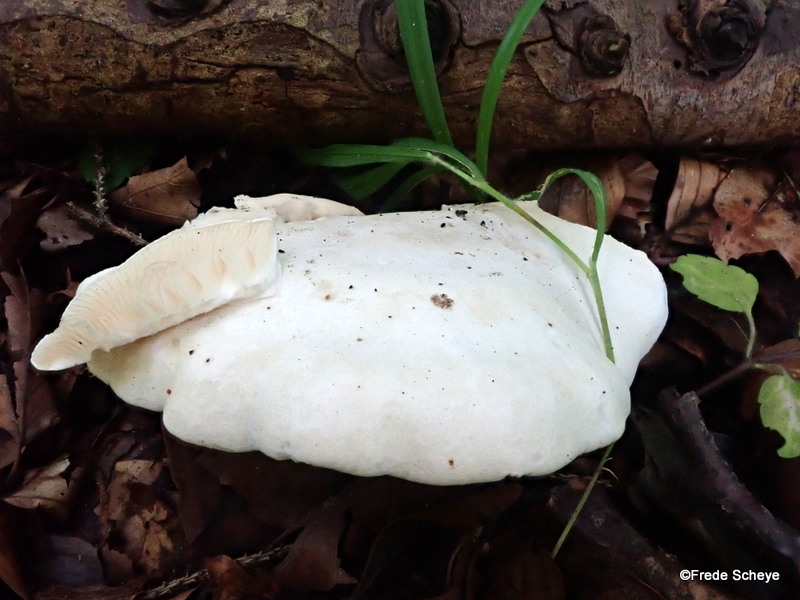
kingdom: Fungi
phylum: Basidiomycota
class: Agaricomycetes
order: Agaricales
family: Entolomataceae
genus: Clitopilus
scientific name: Clitopilus prunulus
